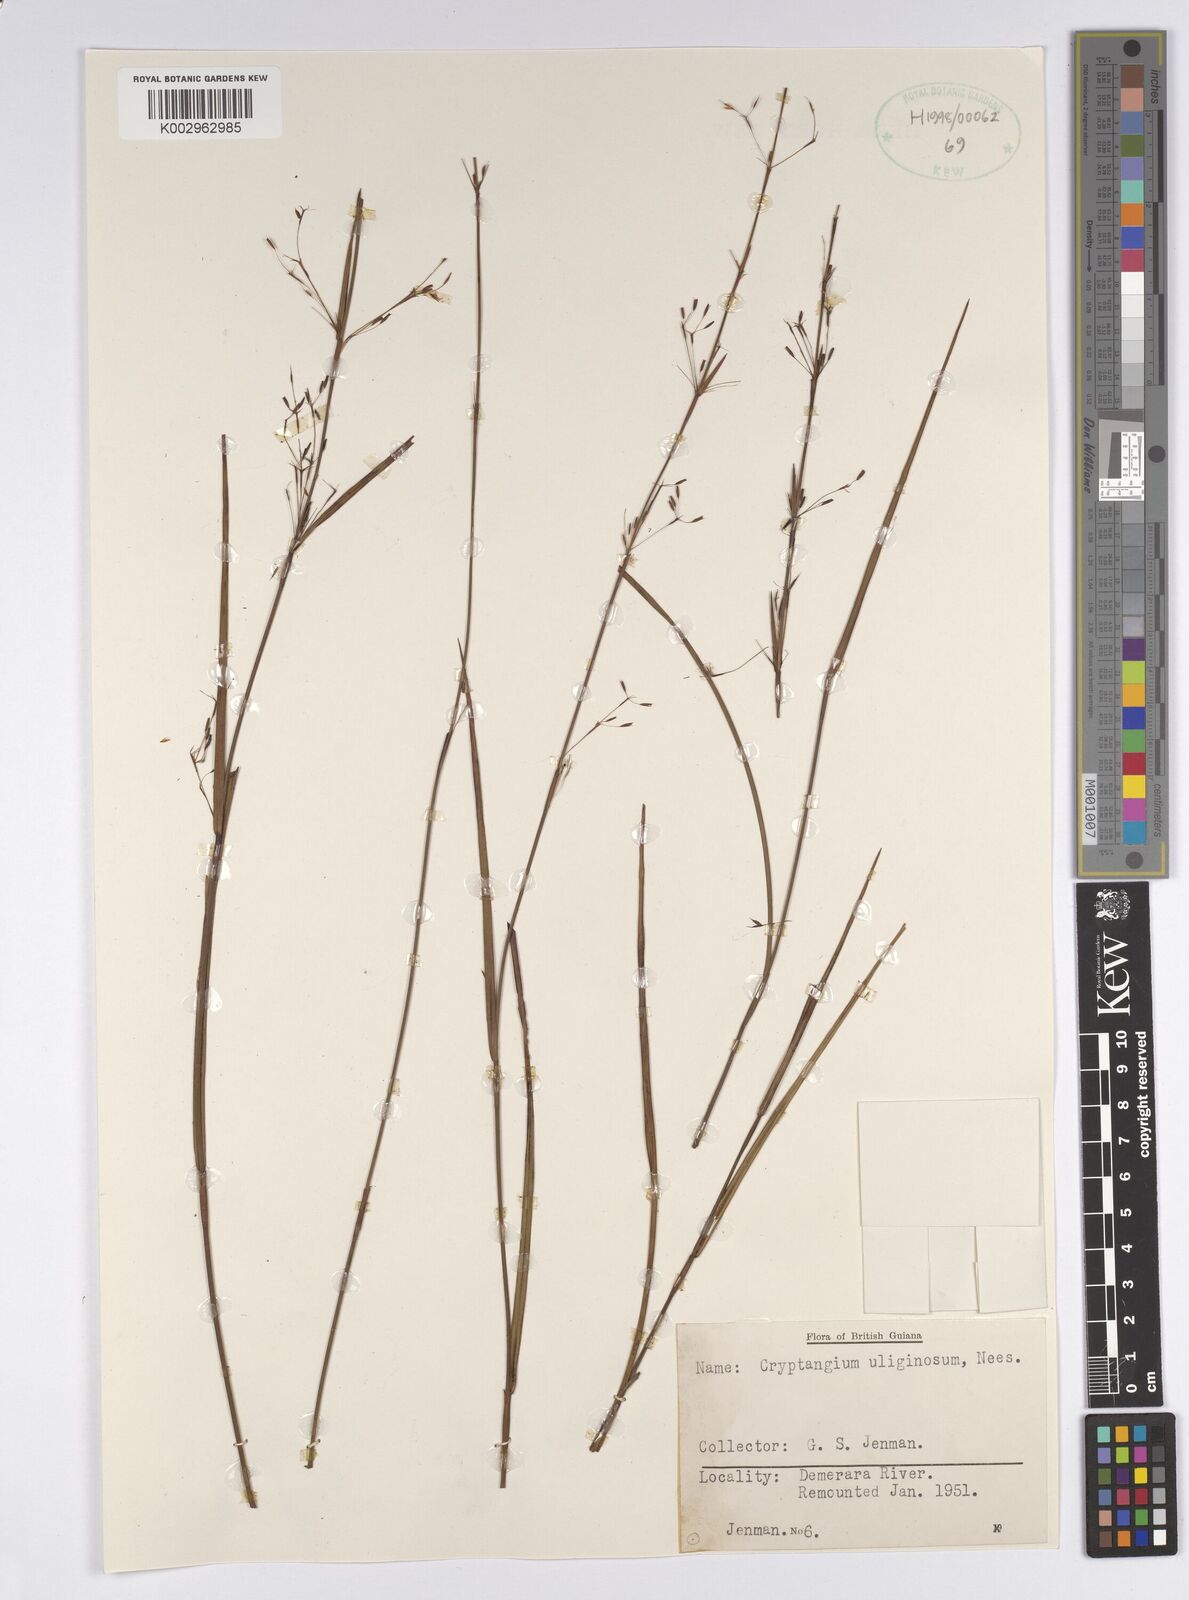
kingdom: Plantae
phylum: Tracheophyta
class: Liliopsida
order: Poales
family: Cyperaceae
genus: Cryptangium
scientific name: Cryptangium verticillatum
